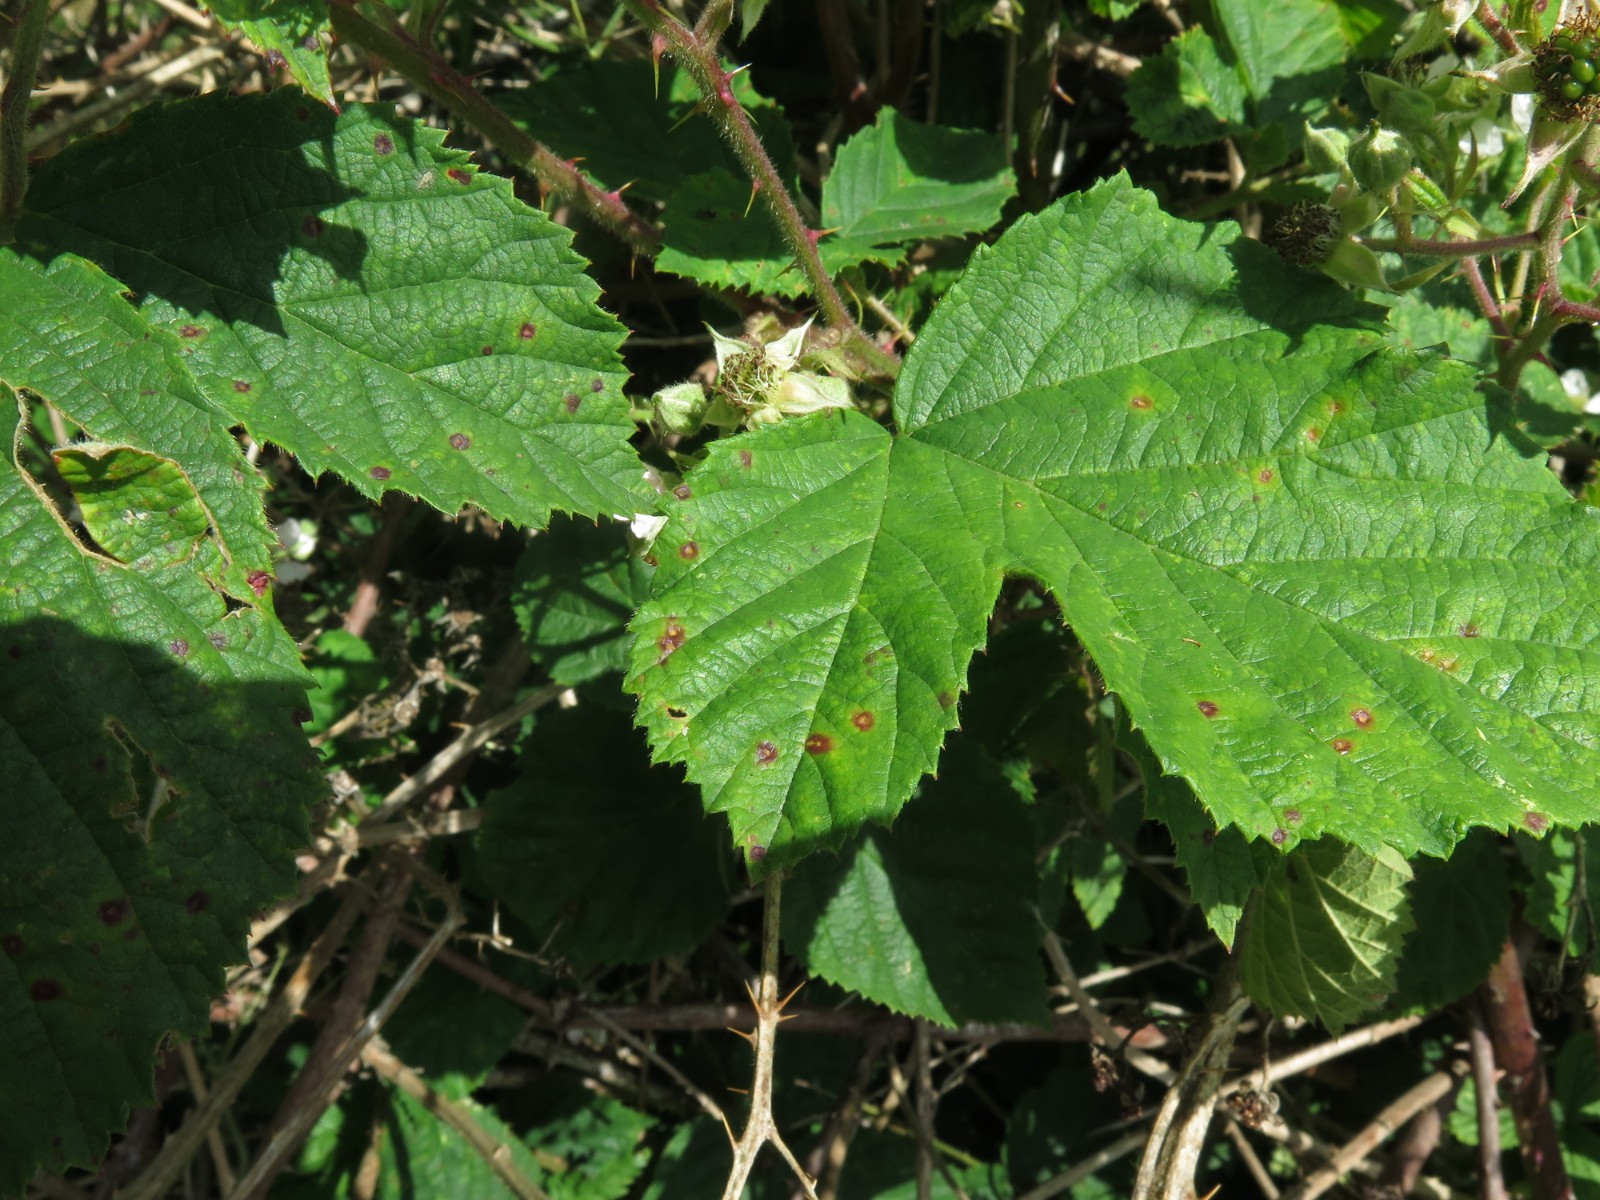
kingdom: Fungi
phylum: Basidiomycota
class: Pucciniomycetes
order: Pucciniales
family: Phragmidiaceae
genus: Phragmidium
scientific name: Phragmidium
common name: flercellerust
